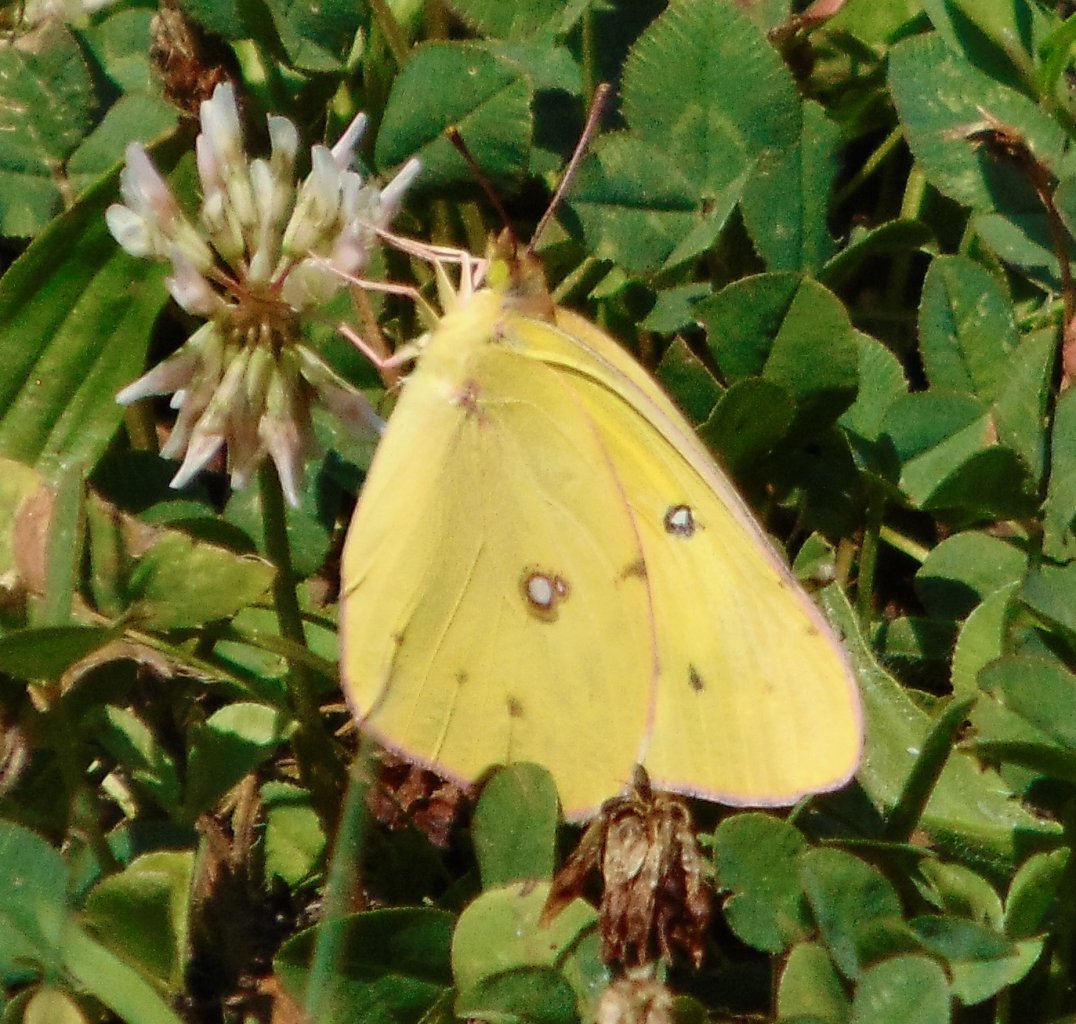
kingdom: Animalia
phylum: Arthropoda
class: Insecta
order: Lepidoptera
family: Pieridae
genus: Colias
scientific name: Colias philodice
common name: Clouded Sulphur
